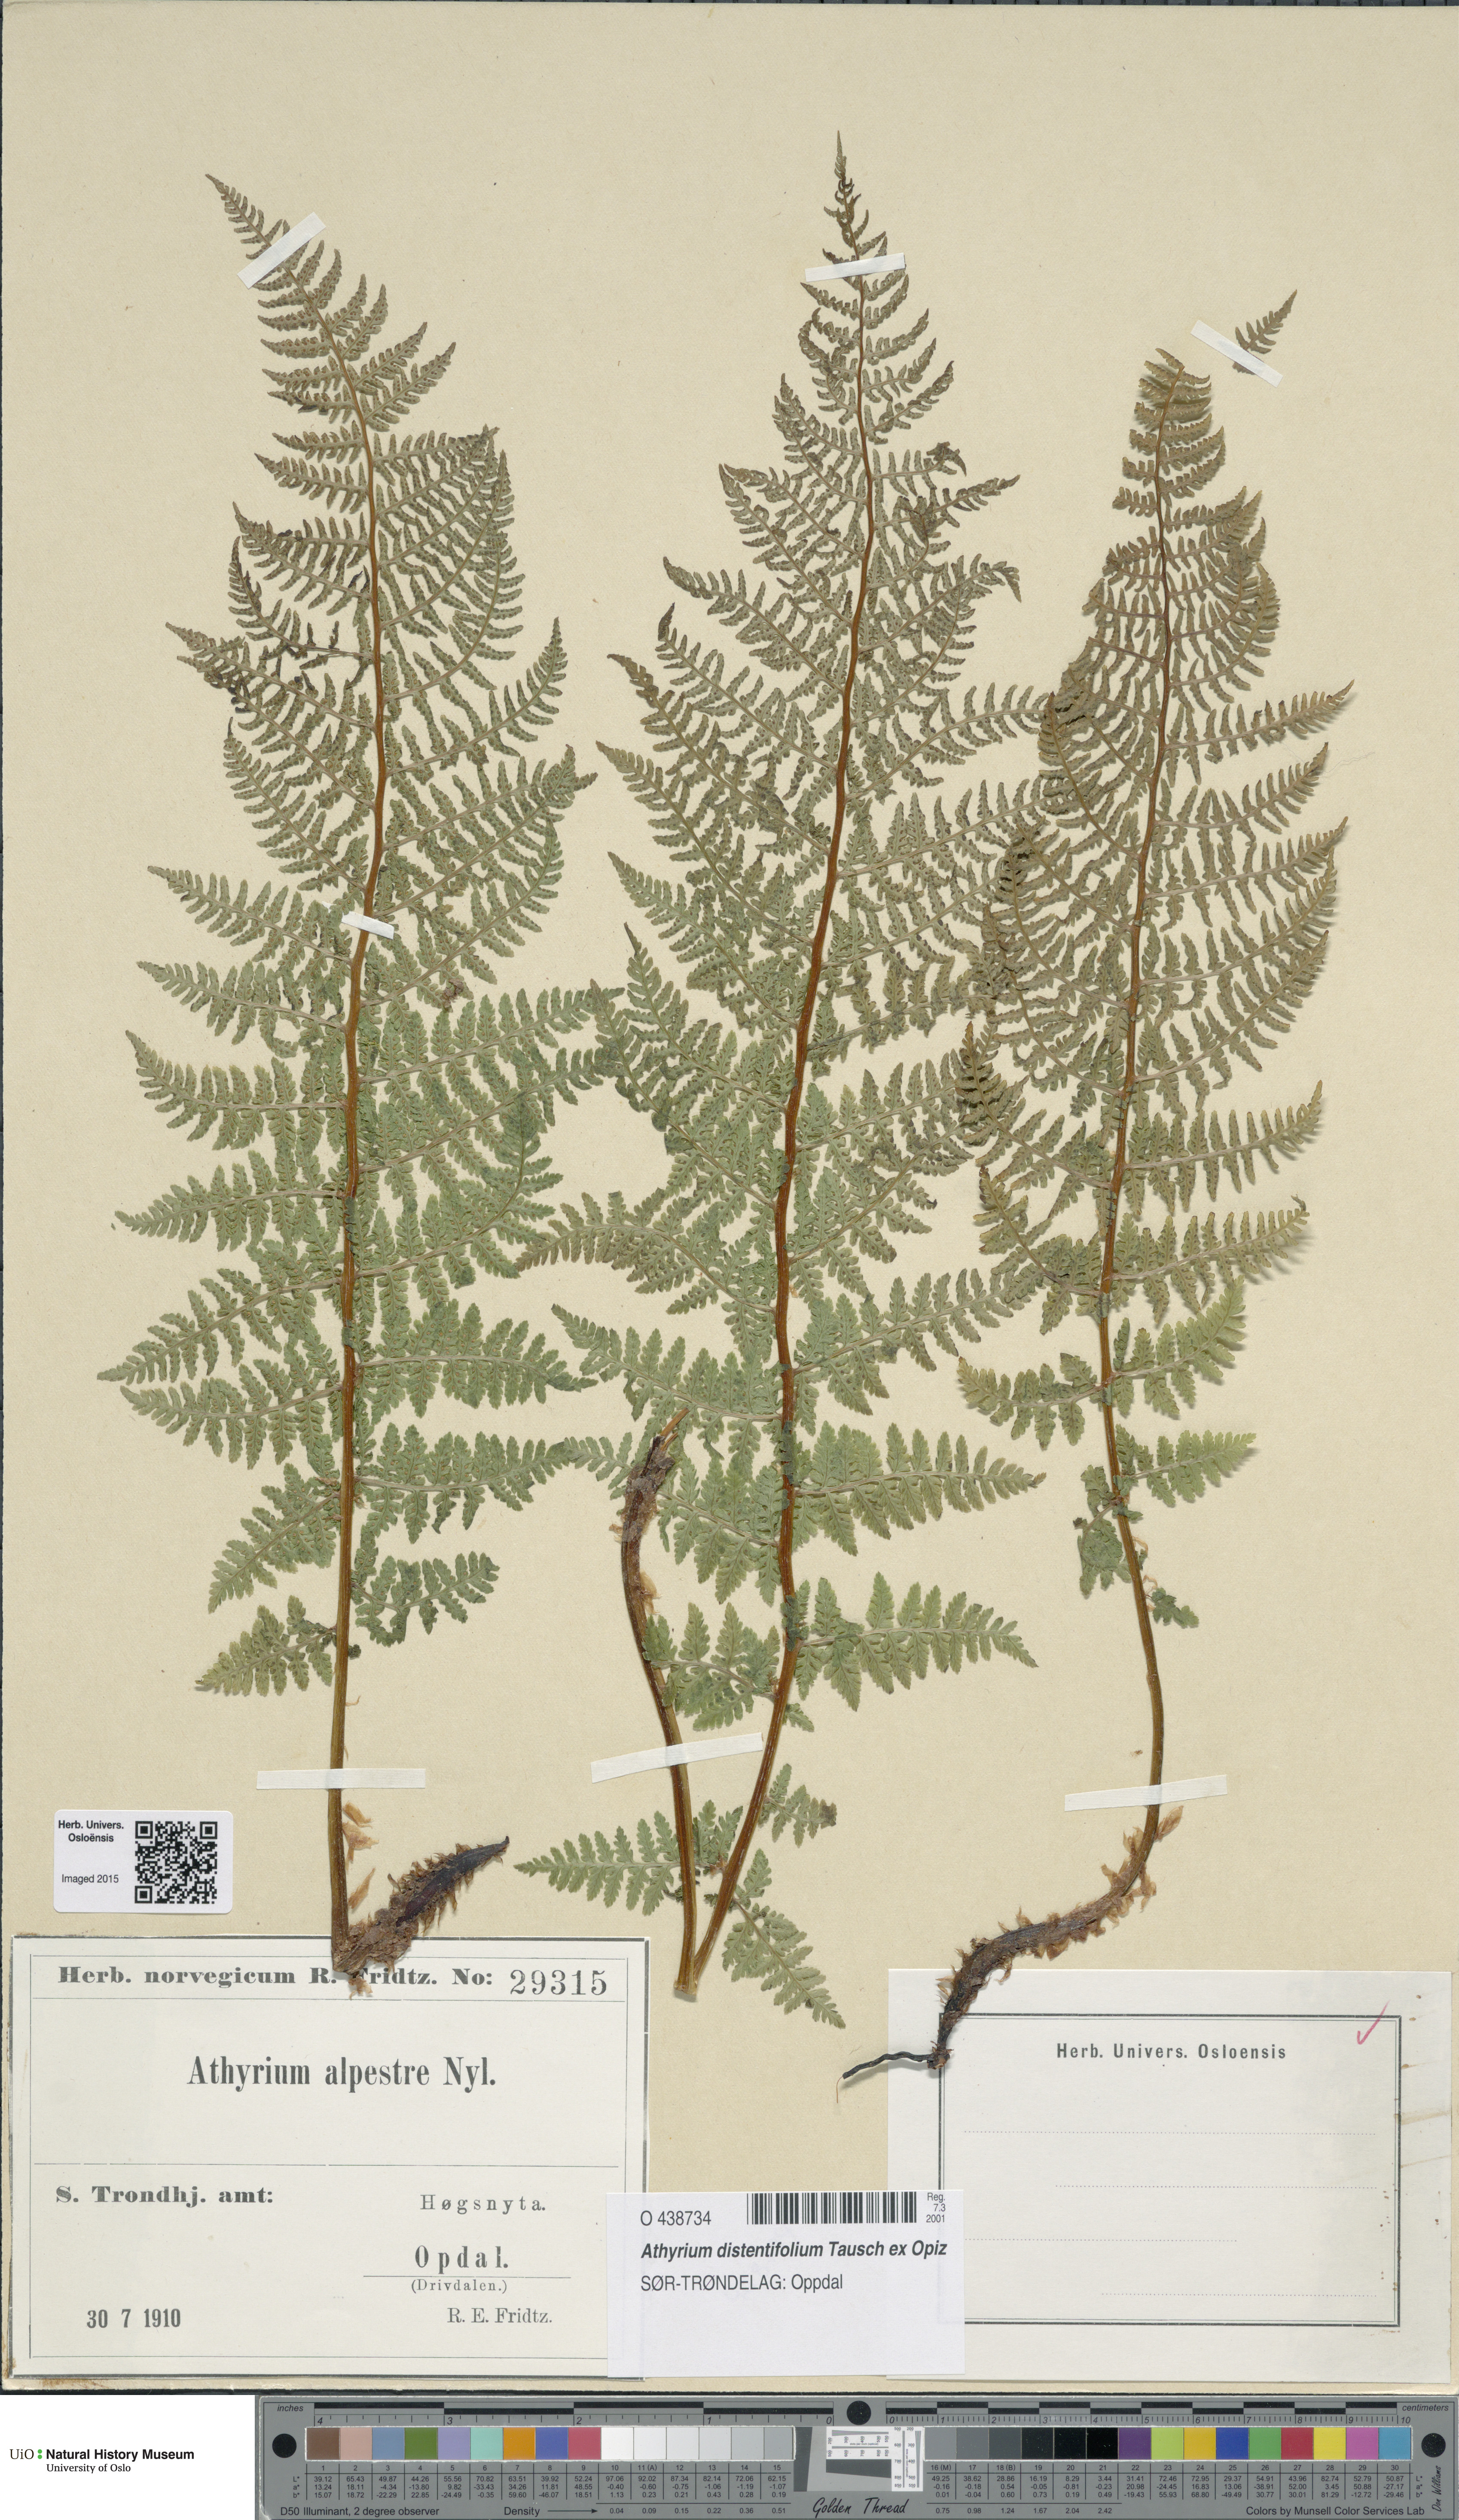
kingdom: Plantae
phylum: Tracheophyta
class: Polypodiopsida
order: Polypodiales
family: Athyriaceae
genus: Pseudathyrium
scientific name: Pseudathyrium alpestre
